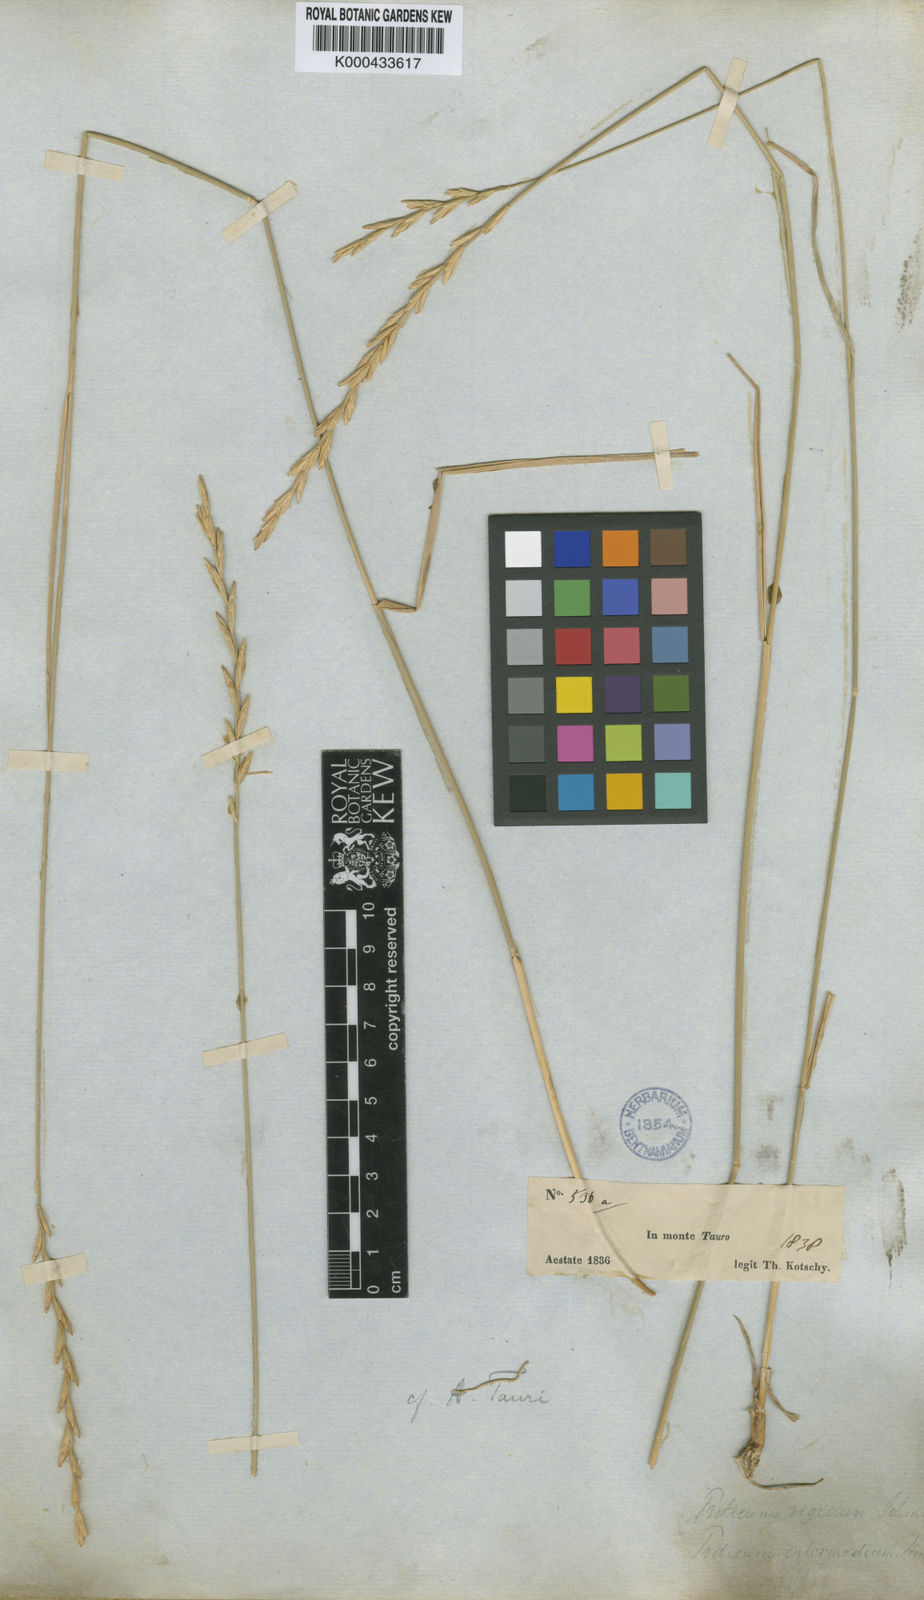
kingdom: Plantae
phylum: Tracheophyta
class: Liliopsida
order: Poales
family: Poaceae
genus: Pseudoroegneria
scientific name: Pseudoroegneria tauri
